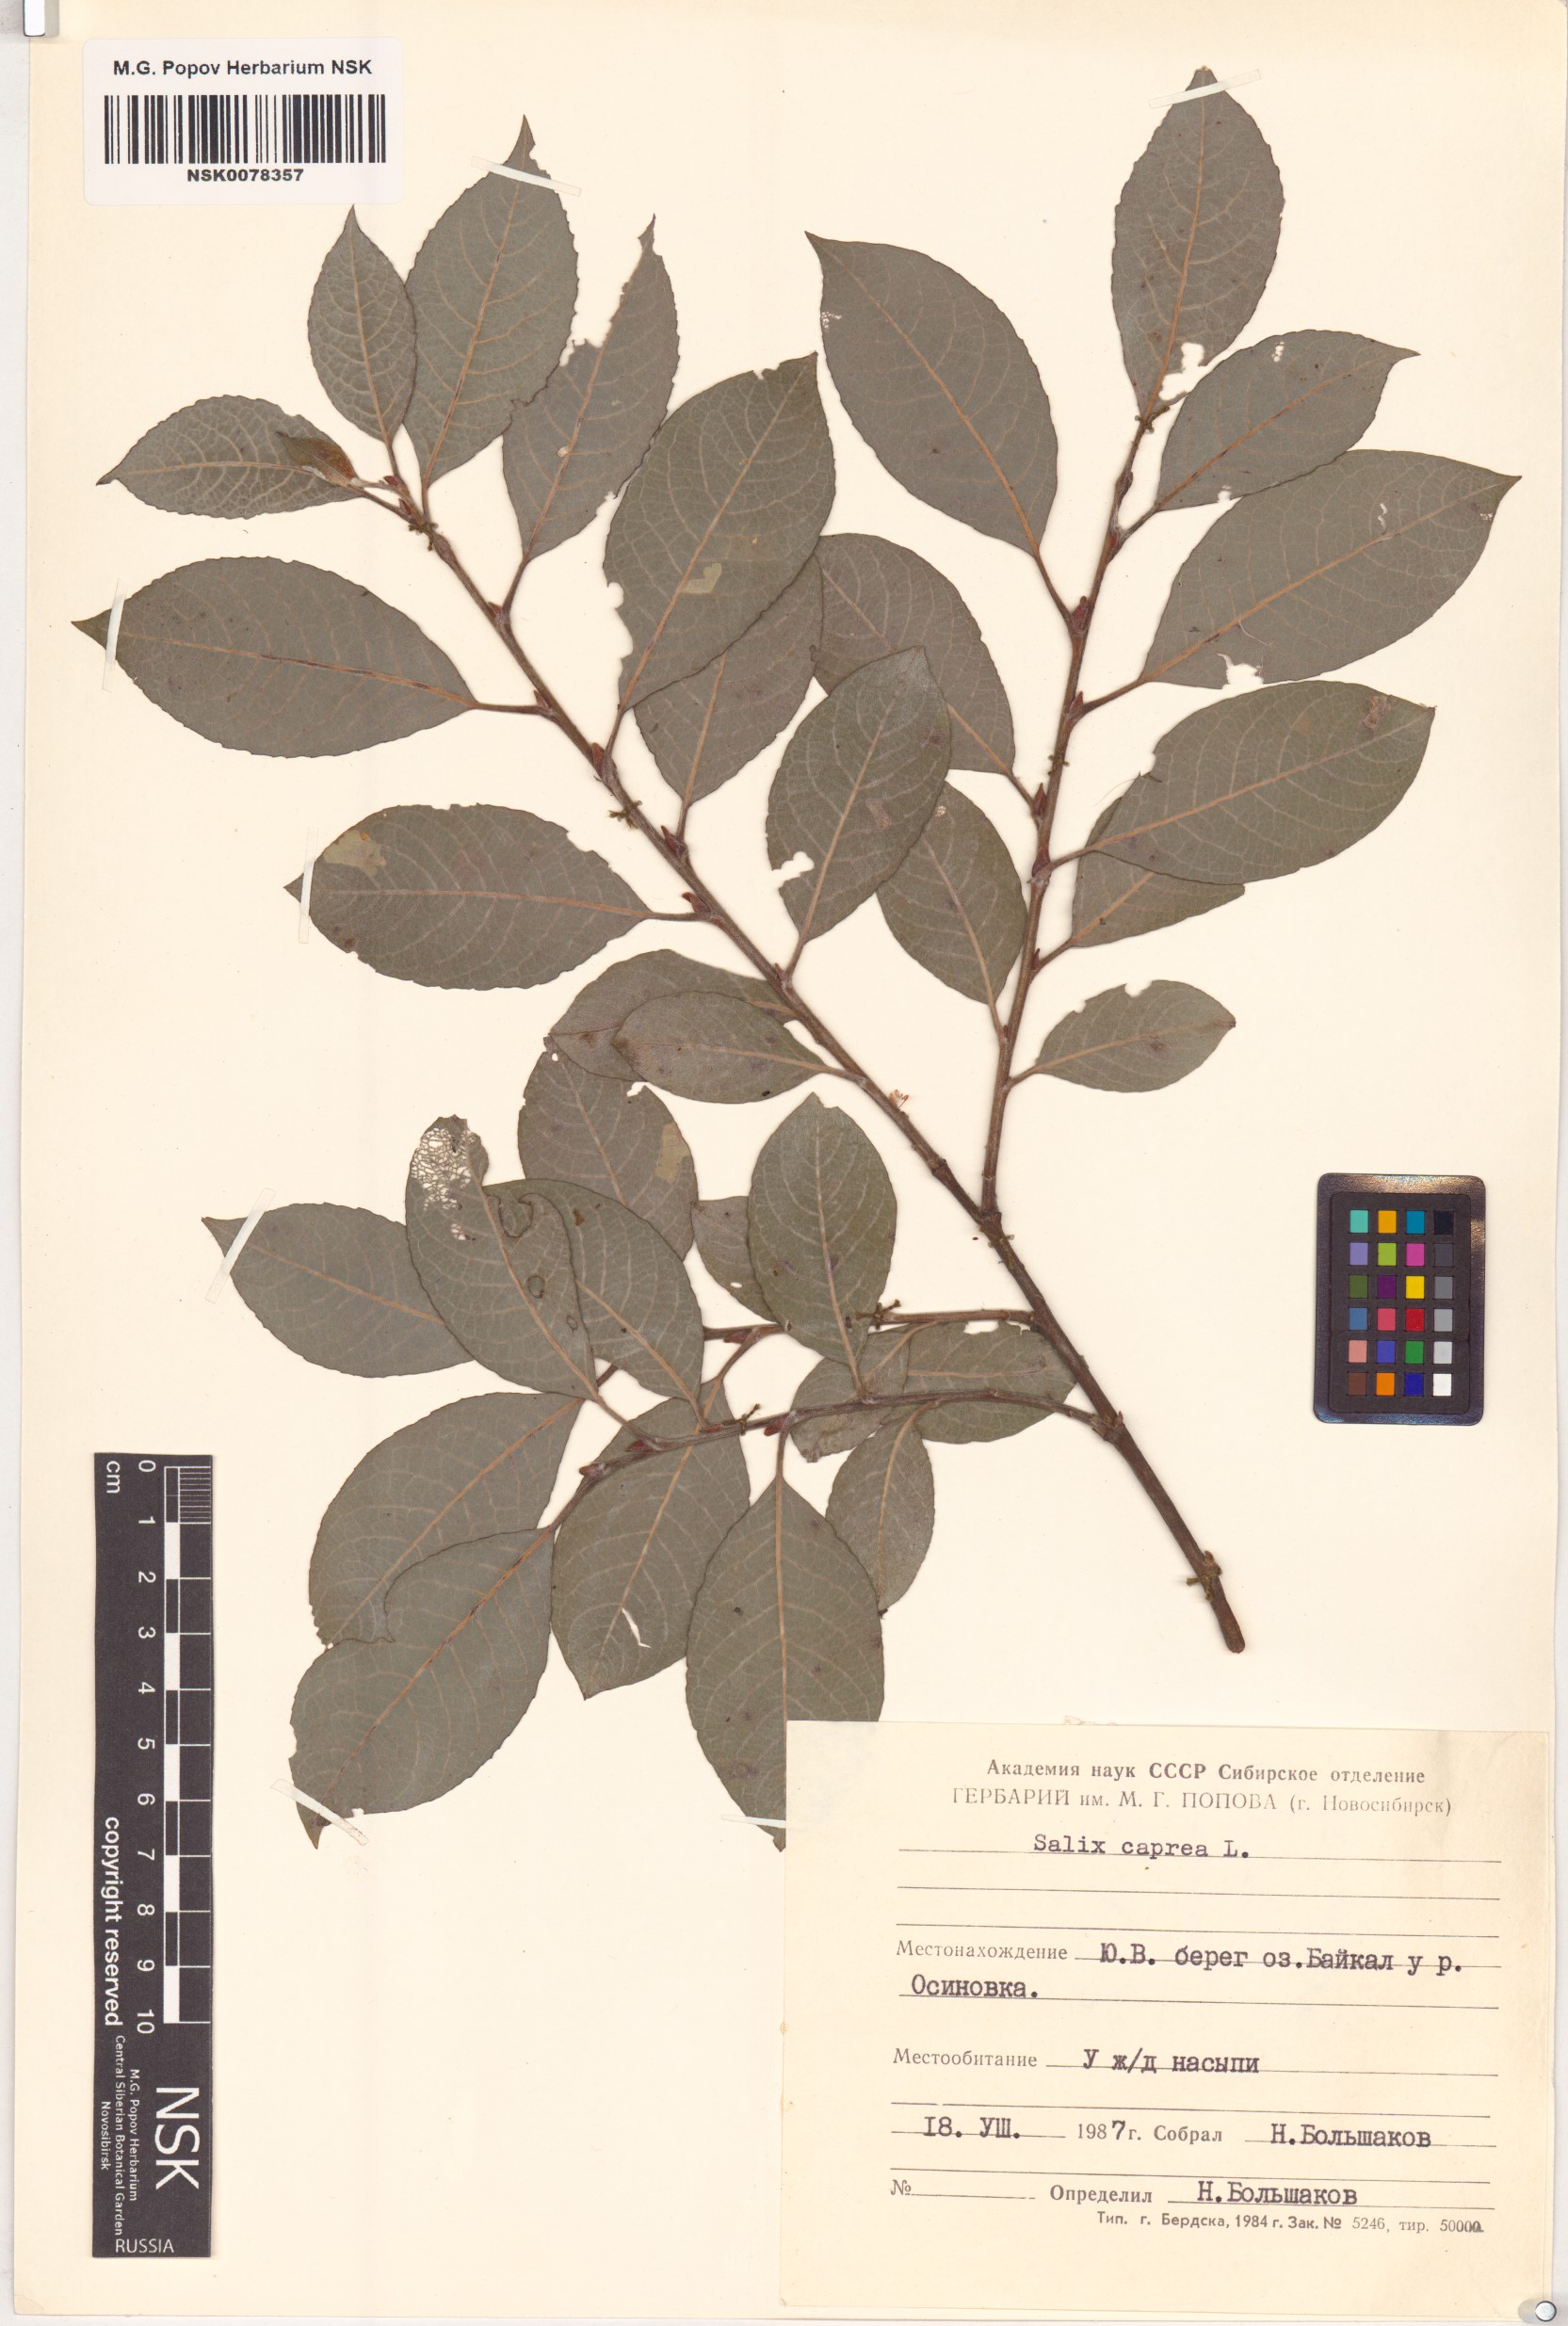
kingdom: Plantae
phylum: Tracheophyta
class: Magnoliopsida
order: Malpighiales
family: Salicaceae
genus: Salix
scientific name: Salix caprea
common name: Goat willow
